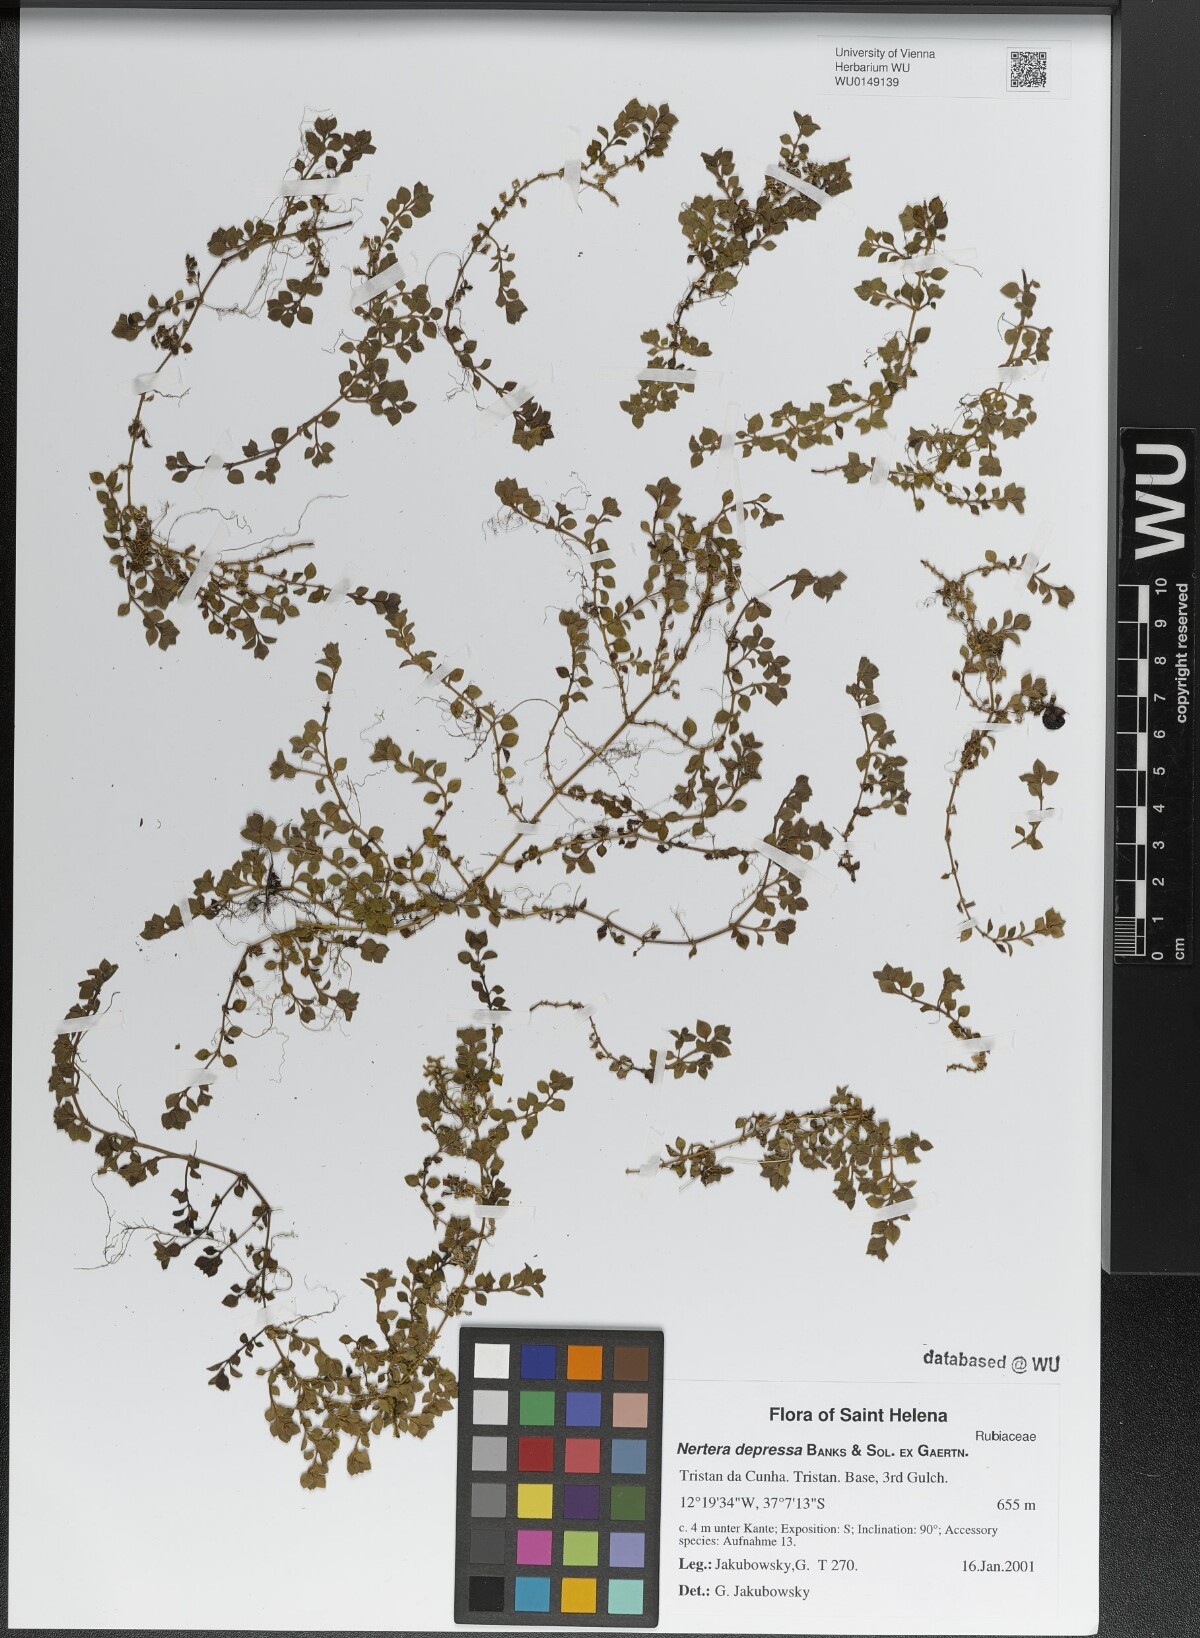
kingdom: Plantae
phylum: Tracheophyta
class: Magnoliopsida
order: Gentianales
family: Rubiaceae
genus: Nertera
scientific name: Nertera granadensis
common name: Beadplant
